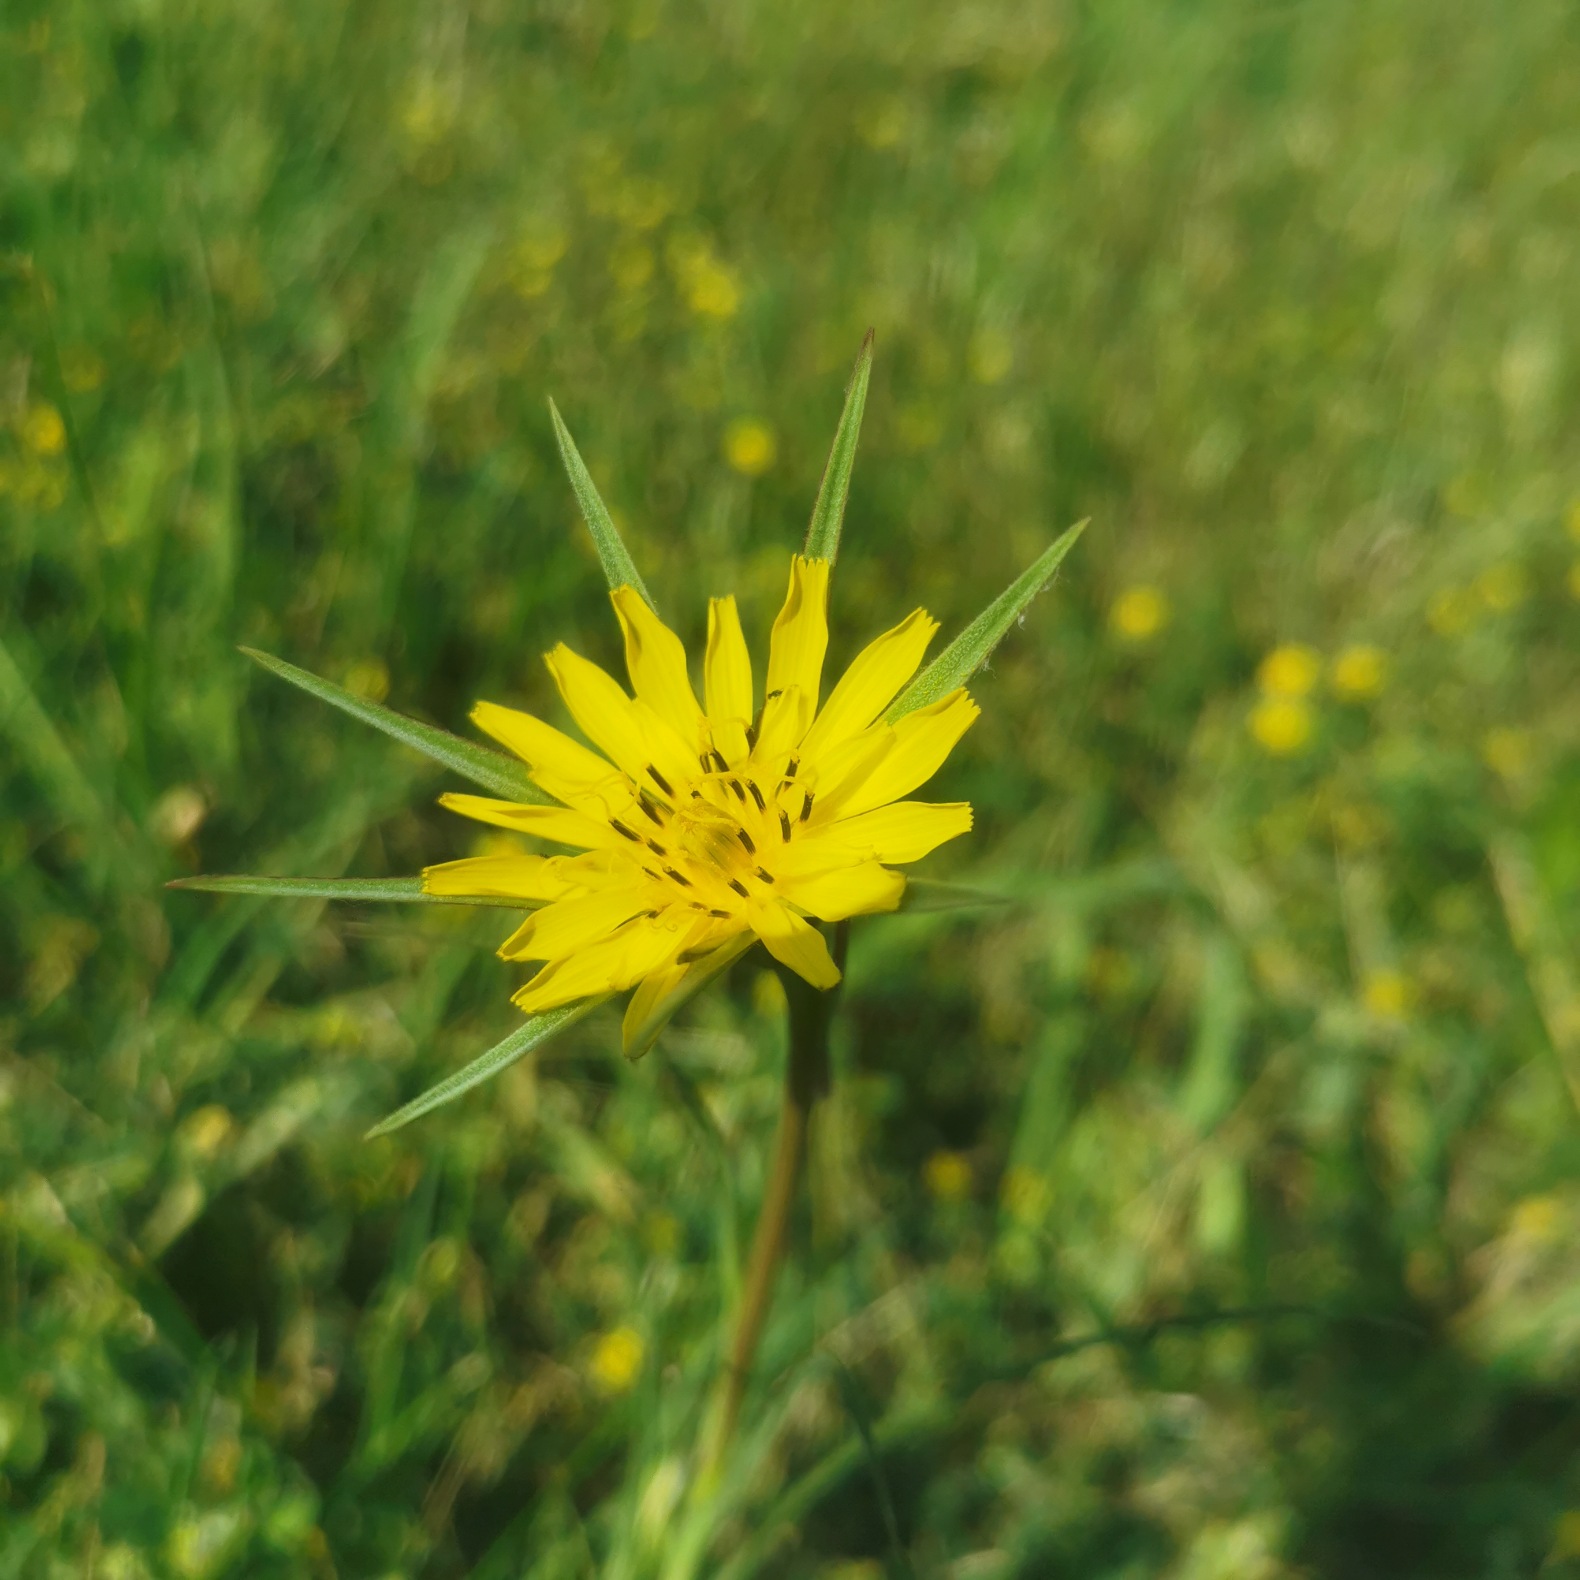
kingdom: Plantae
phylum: Tracheophyta
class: Magnoliopsida
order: Asterales
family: Asteraceae
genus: Tragopogon
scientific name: Tragopogon minor
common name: Småkronet gedeskæg
